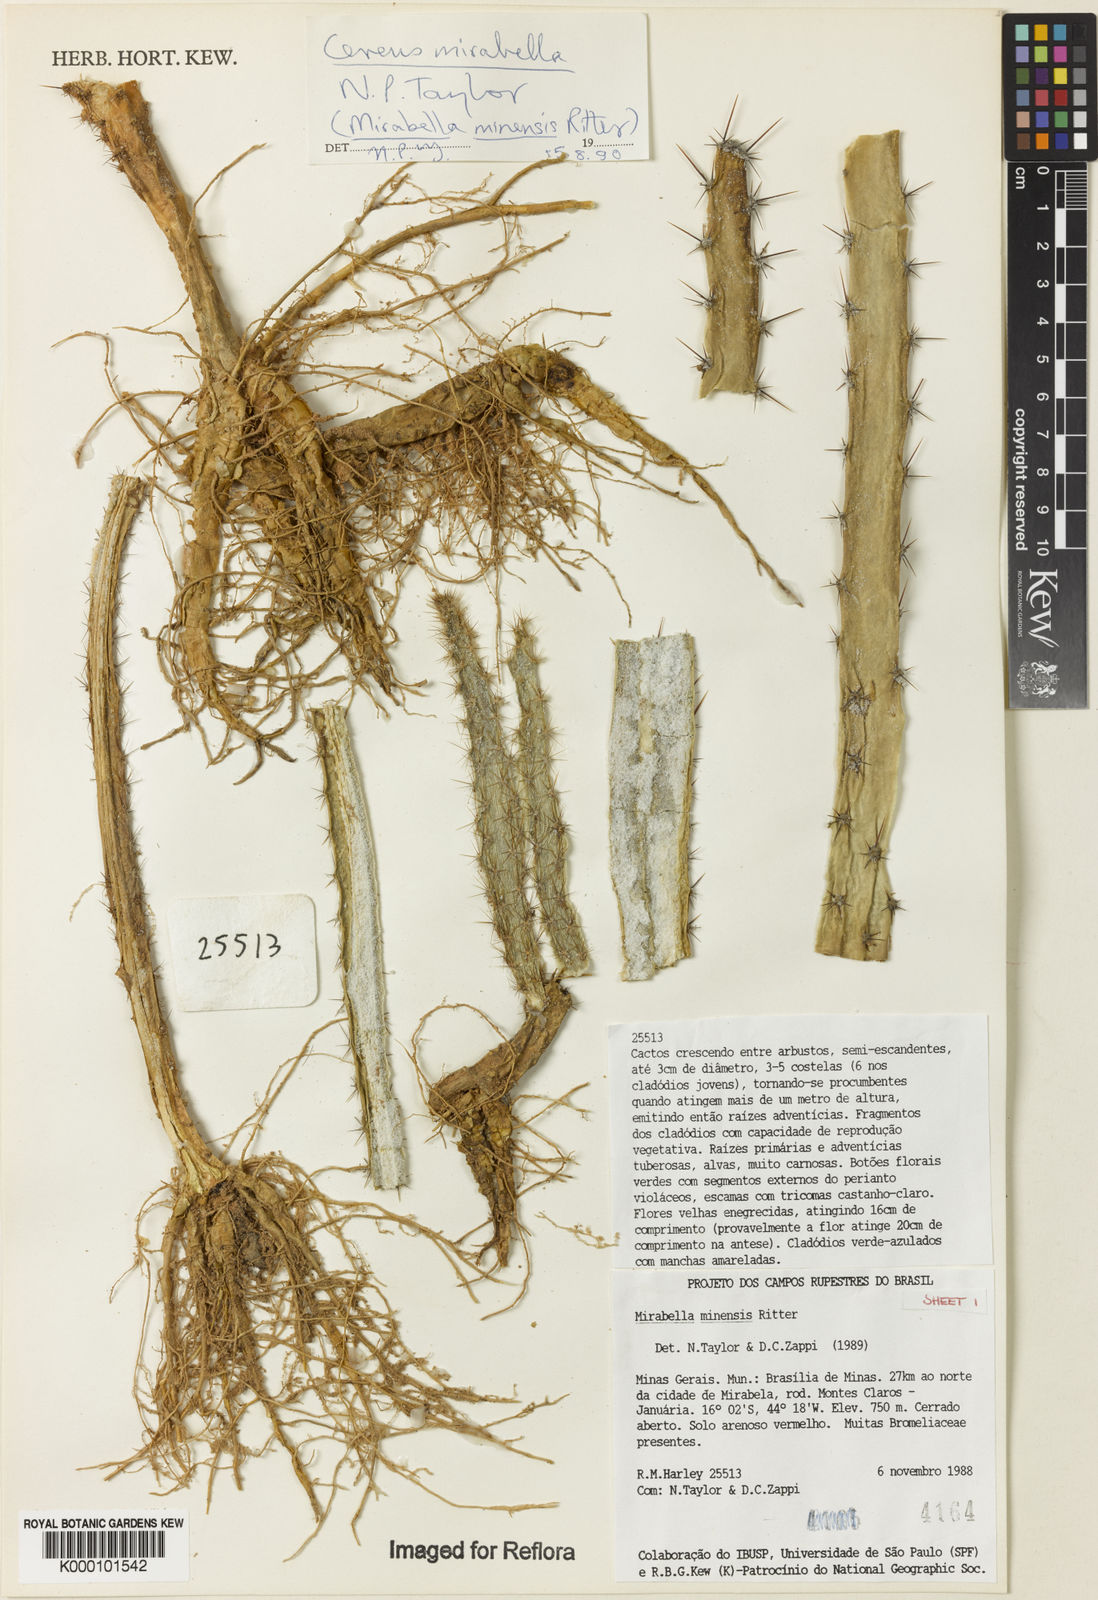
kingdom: Plantae
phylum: Tracheophyta
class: Magnoliopsida
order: Caryophyllales
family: Cactaceae
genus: Cereus
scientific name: Cereus mirabella
